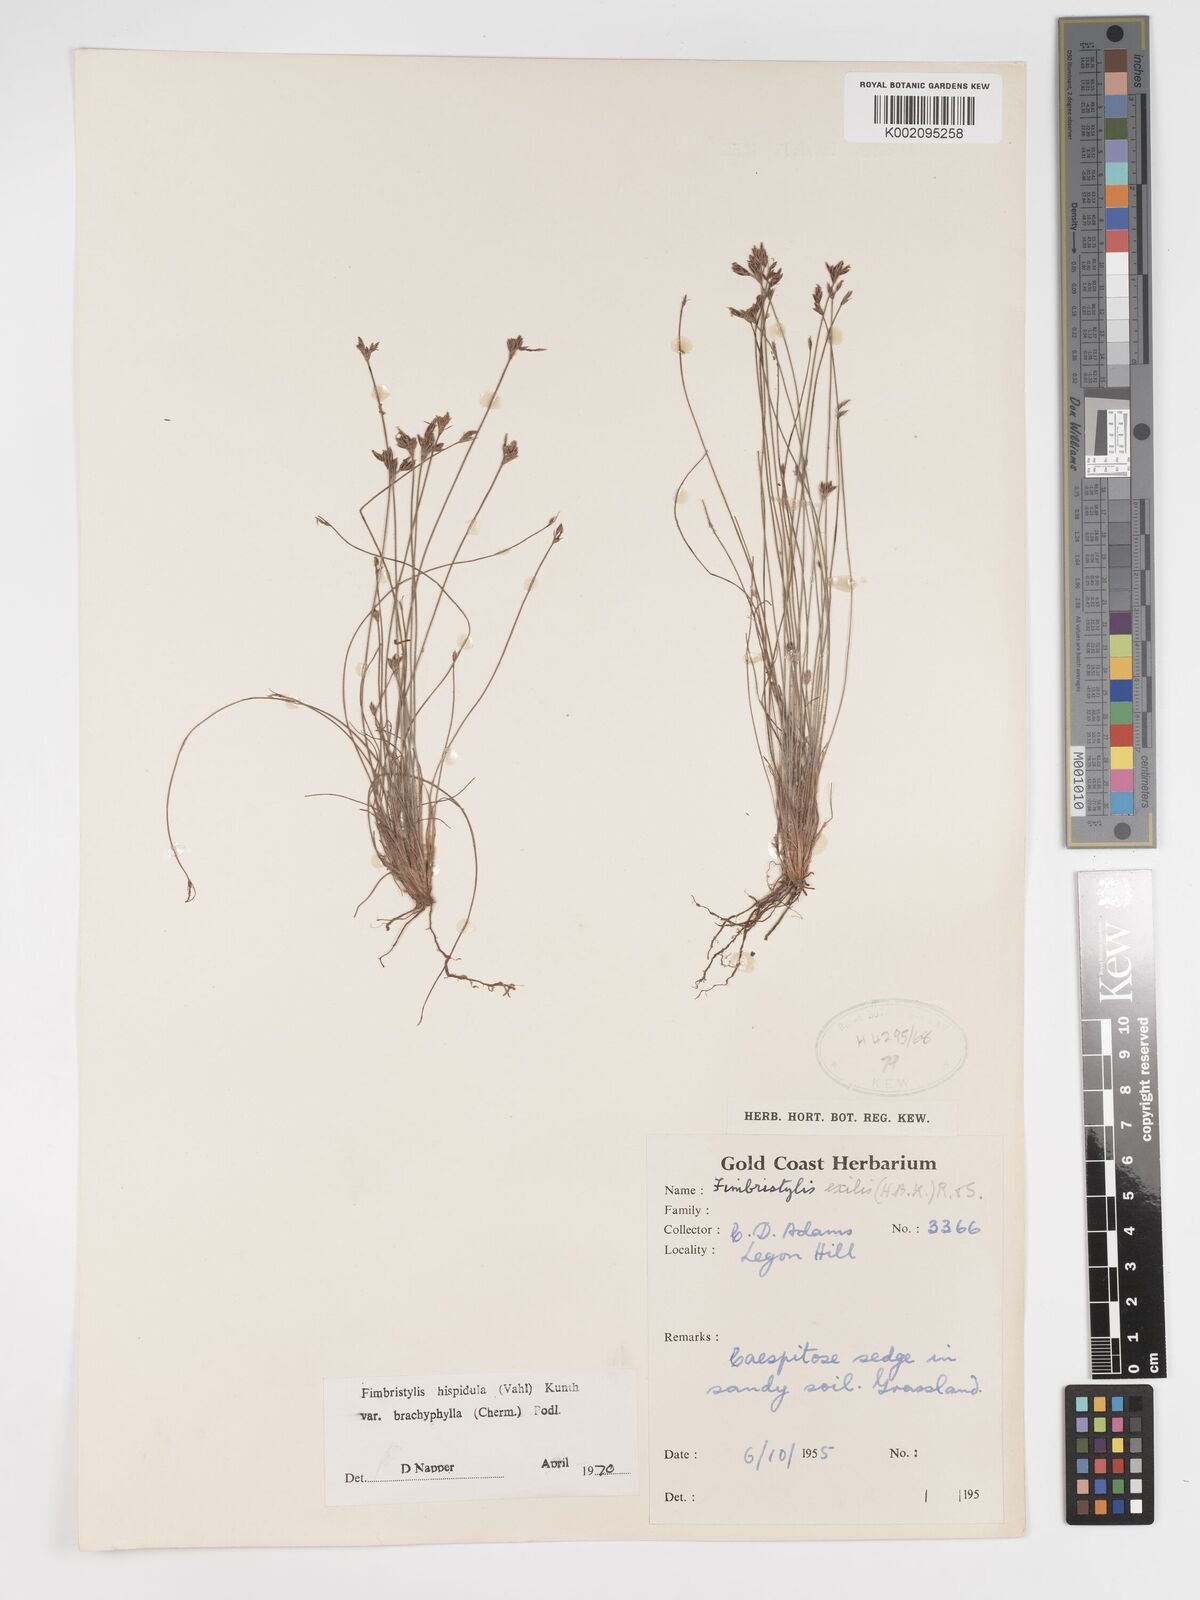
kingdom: Plantae
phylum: Tracheophyta
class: Liliopsida
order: Poales
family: Cyperaceae
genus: Bulbostylis
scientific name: Bulbostylis hispidula
